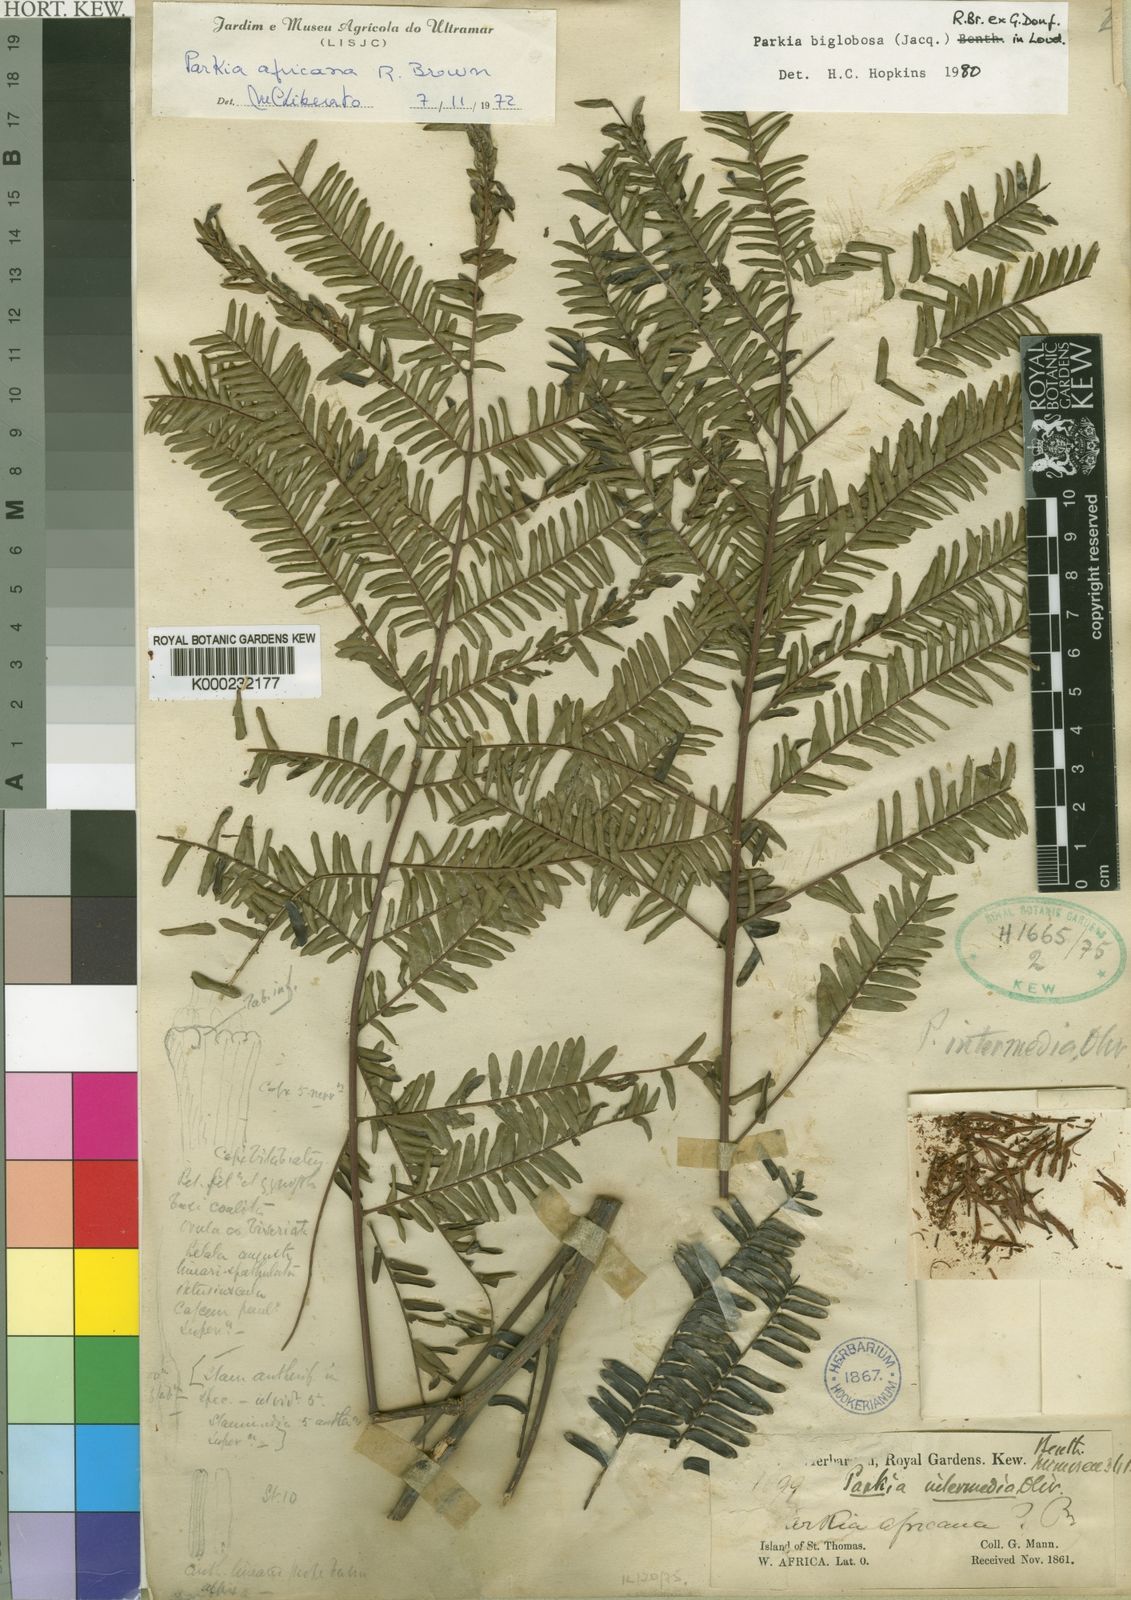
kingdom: Plantae
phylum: Tracheophyta
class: Magnoliopsida
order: Fabales
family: Fabaceae
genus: Parkia
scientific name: Parkia biglobosa
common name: African locust-bean
